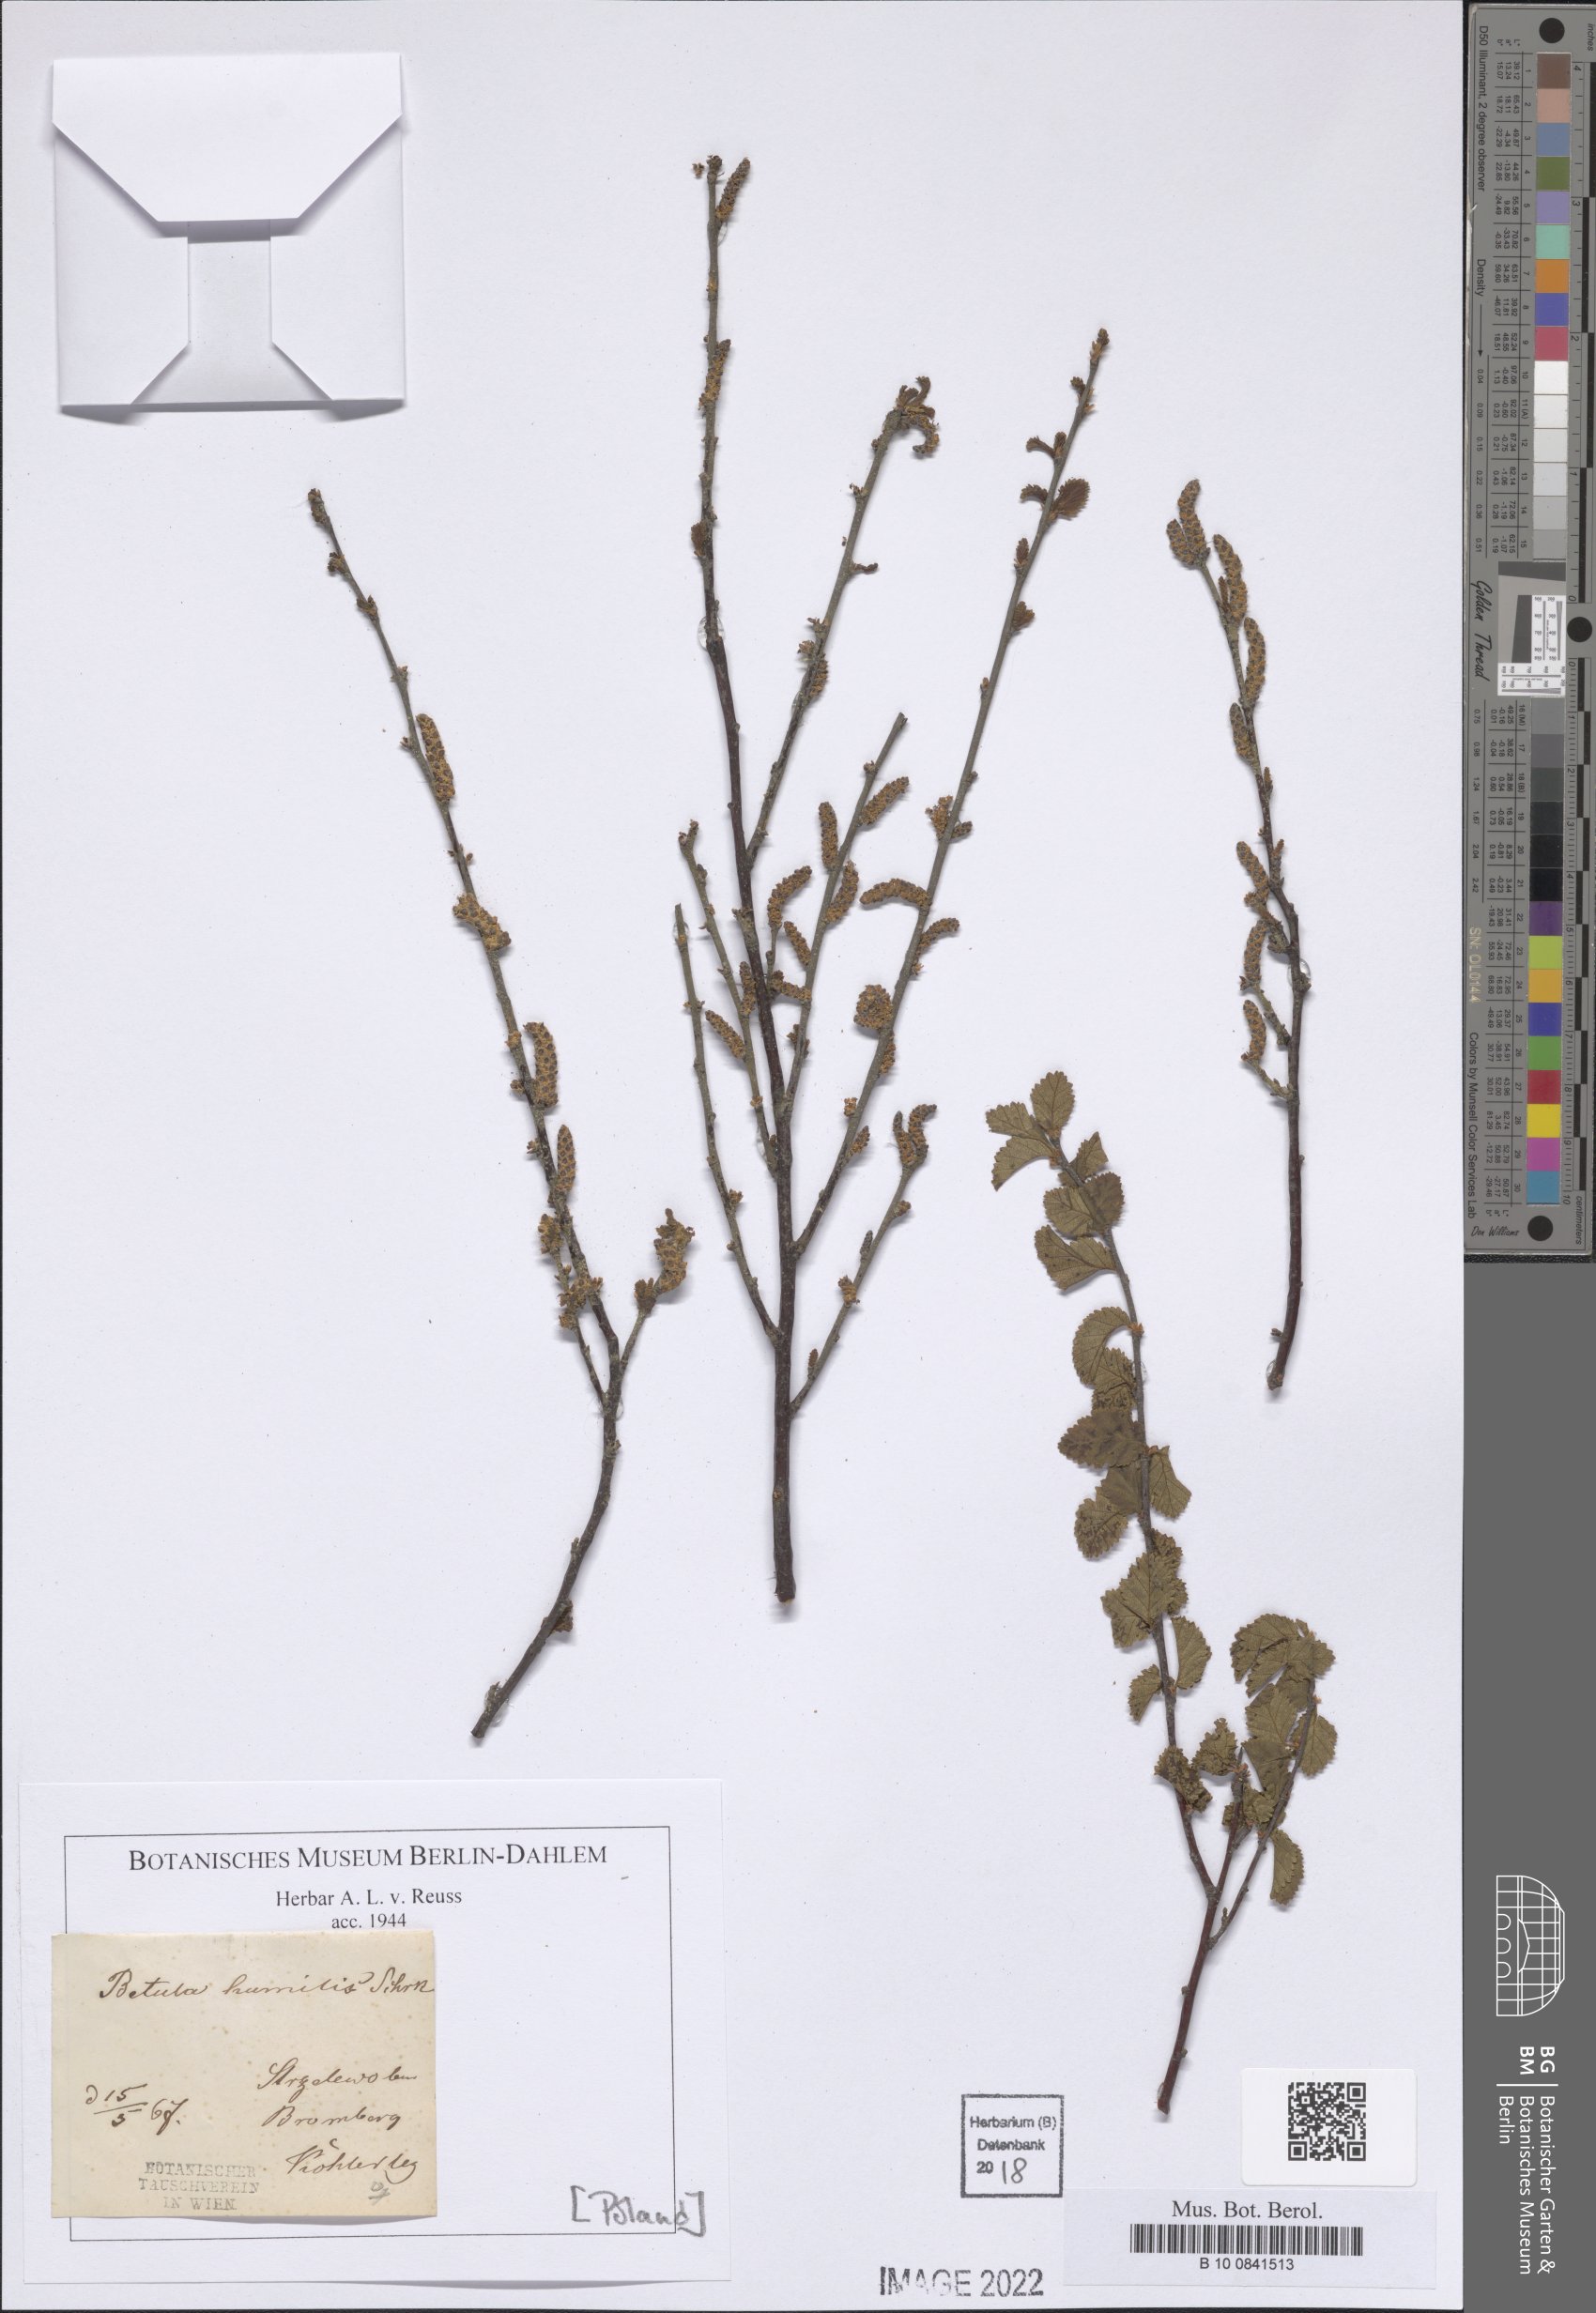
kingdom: Plantae
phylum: Tracheophyta
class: Magnoliopsida
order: Fagales
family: Betulaceae
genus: Betula
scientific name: Betula humilis
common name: Shrubby birch
